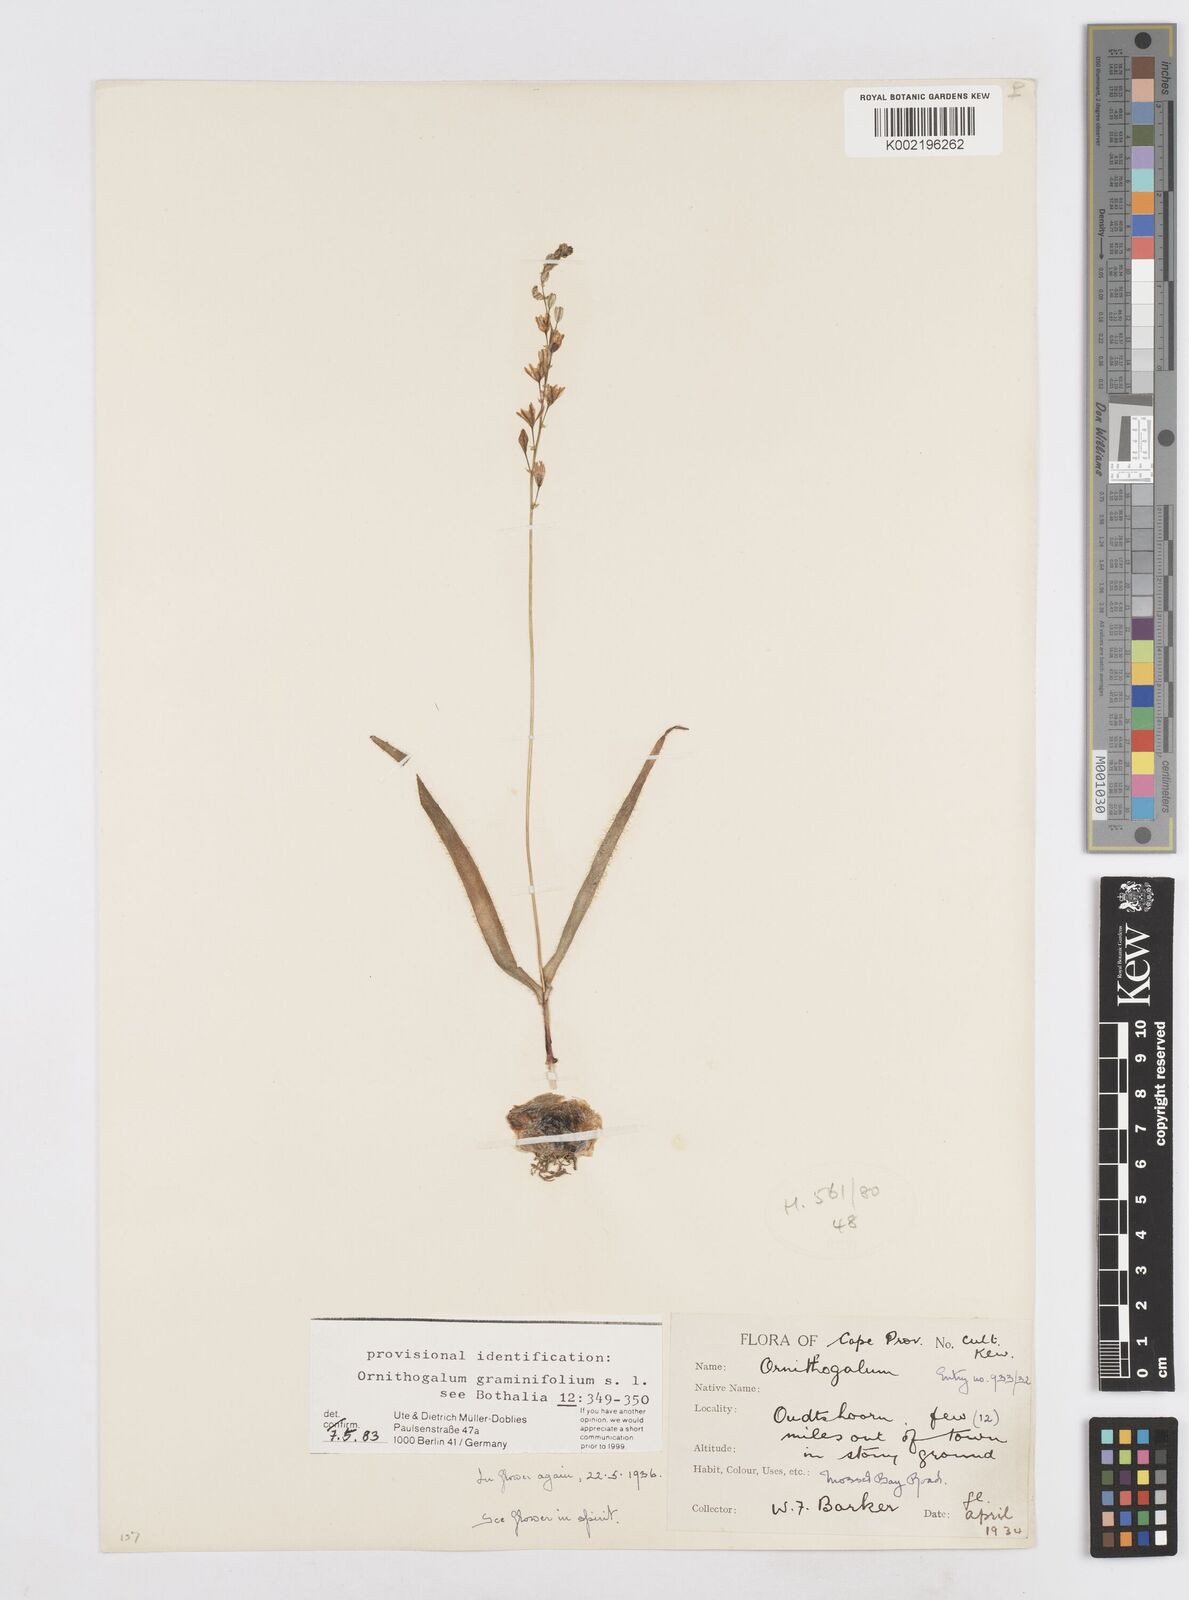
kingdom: Plantae
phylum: Tracheophyta
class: Liliopsida
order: Asparagales
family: Asparagaceae
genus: Ornithogalum
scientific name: Ornithogalum graminifolium
